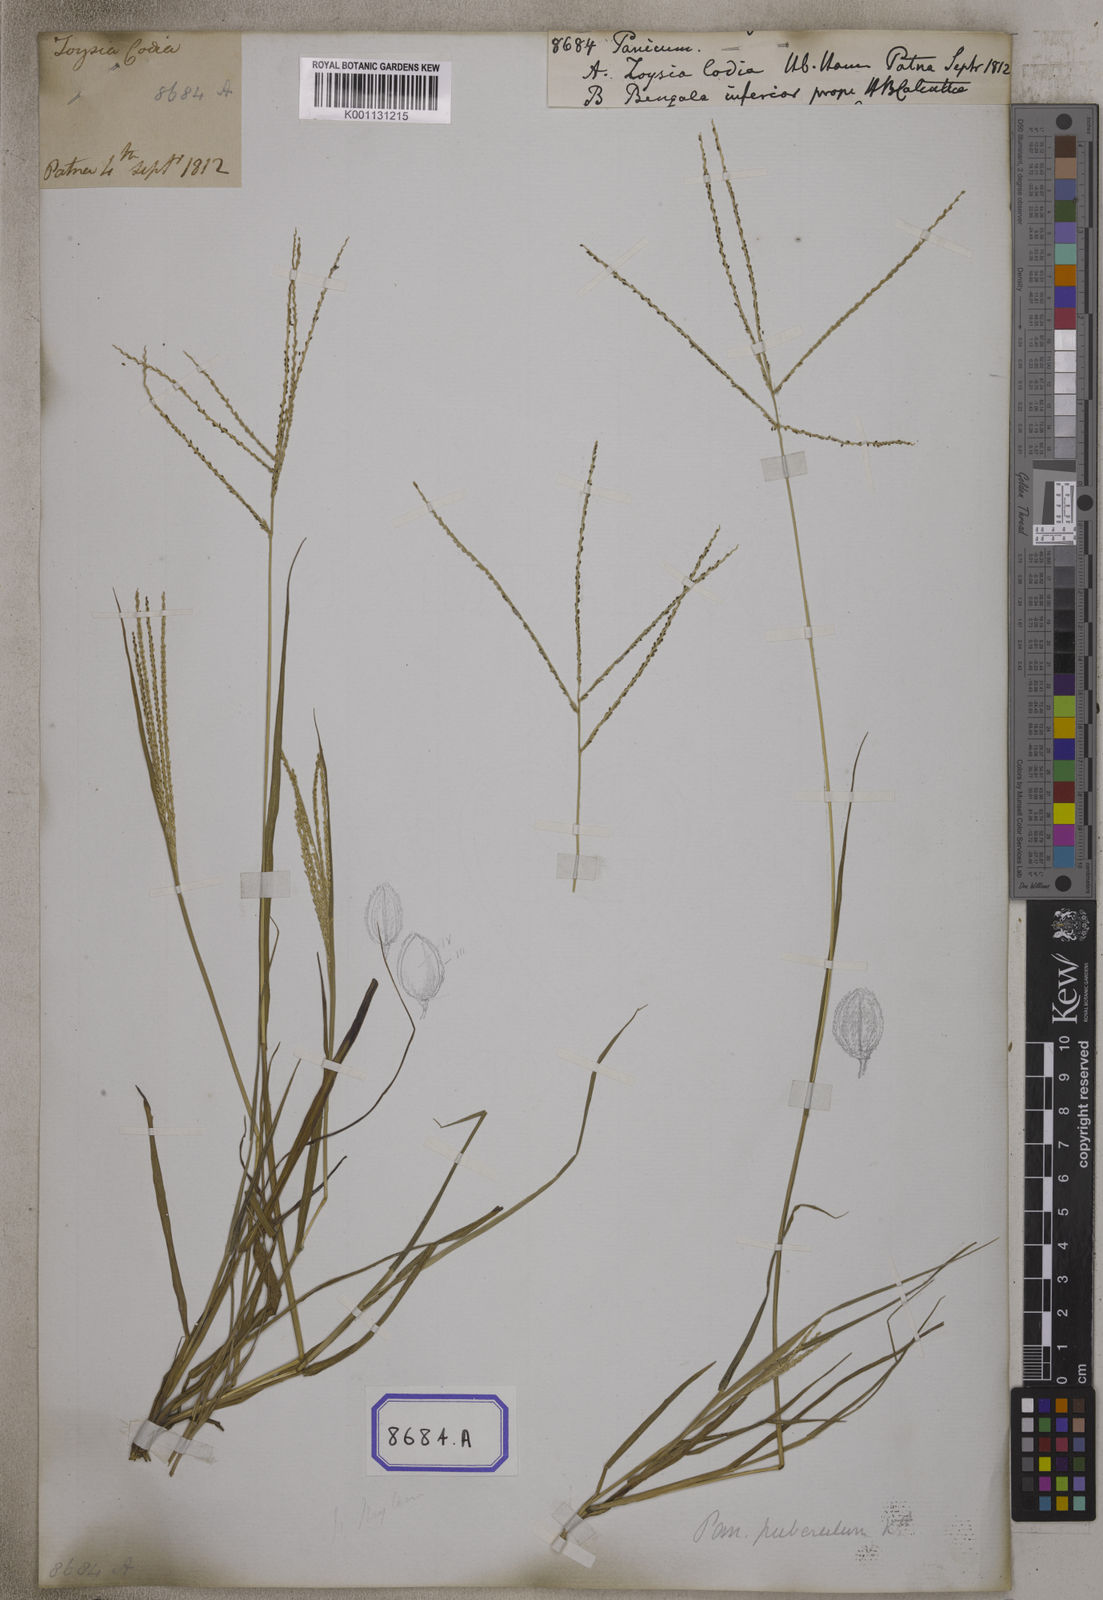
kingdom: Plantae
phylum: Tracheophyta
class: Liliopsida
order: Poales
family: Poaceae
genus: Panicum
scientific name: Panicum
